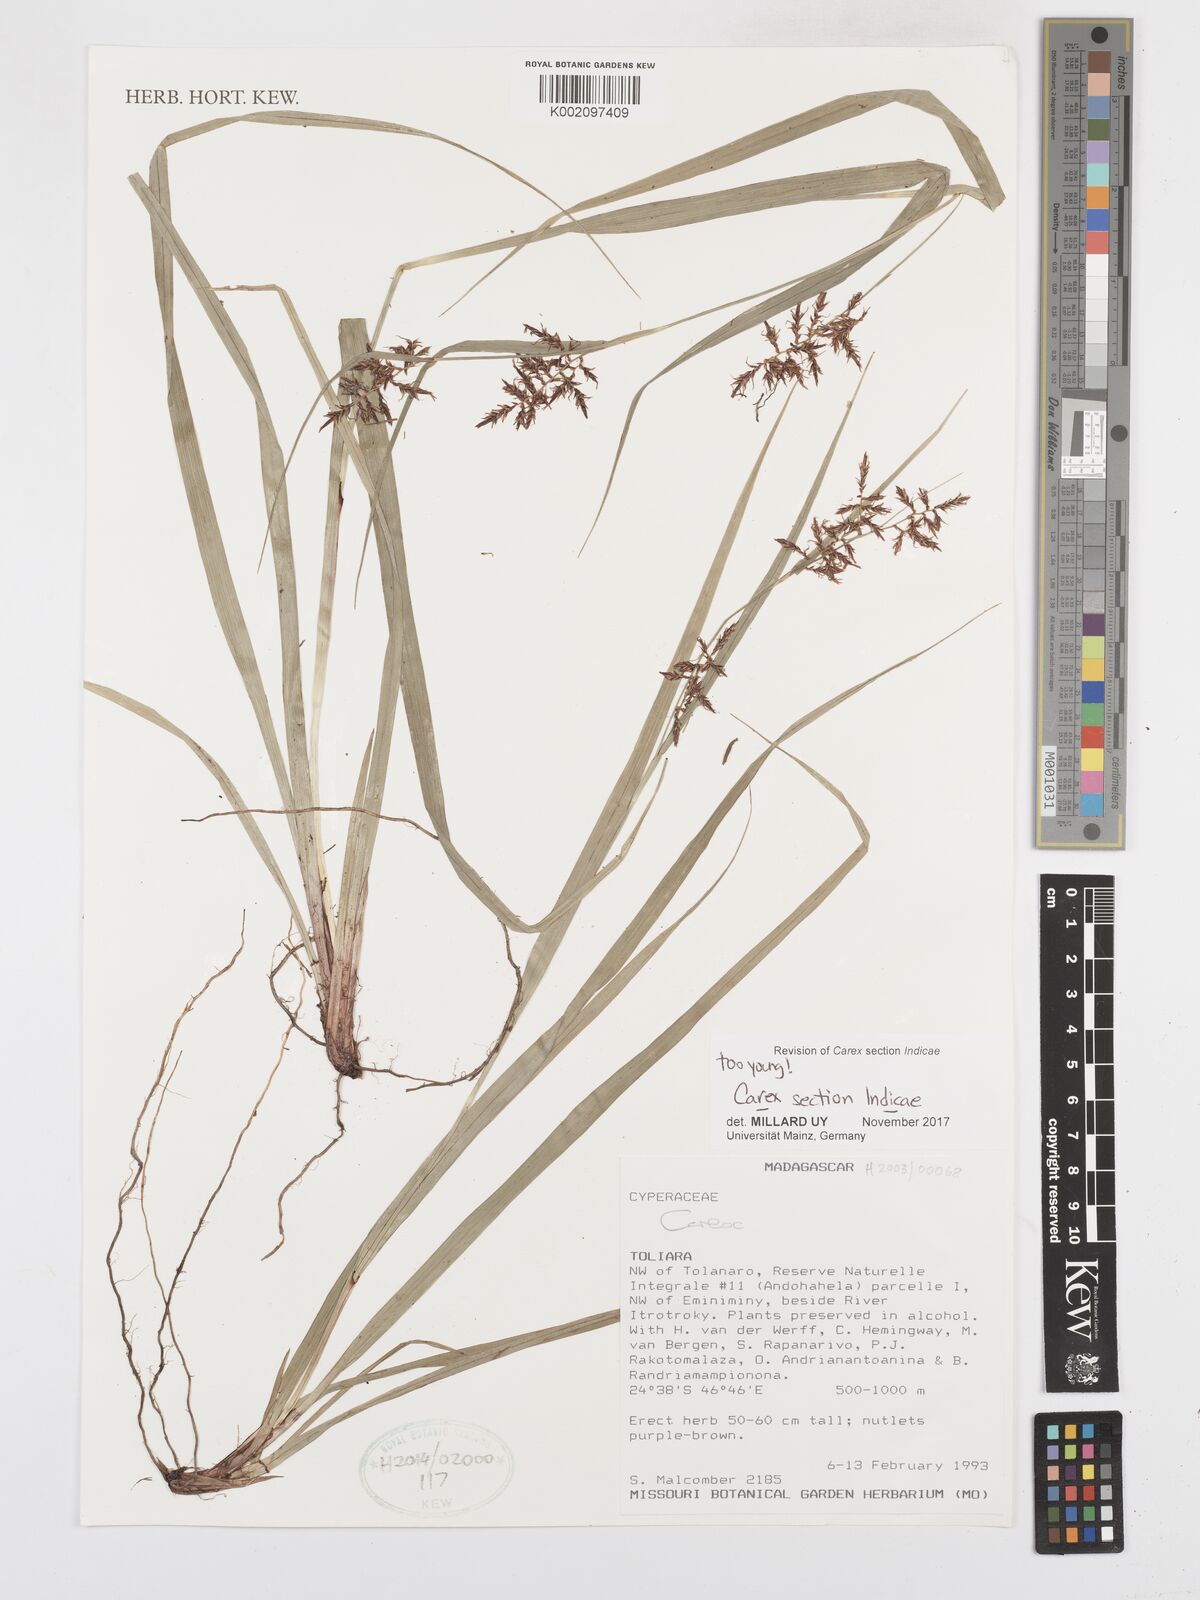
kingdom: Plantae
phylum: Tracheophyta
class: Liliopsida
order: Poales
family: Cyperaceae
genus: Carex
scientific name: Carex
